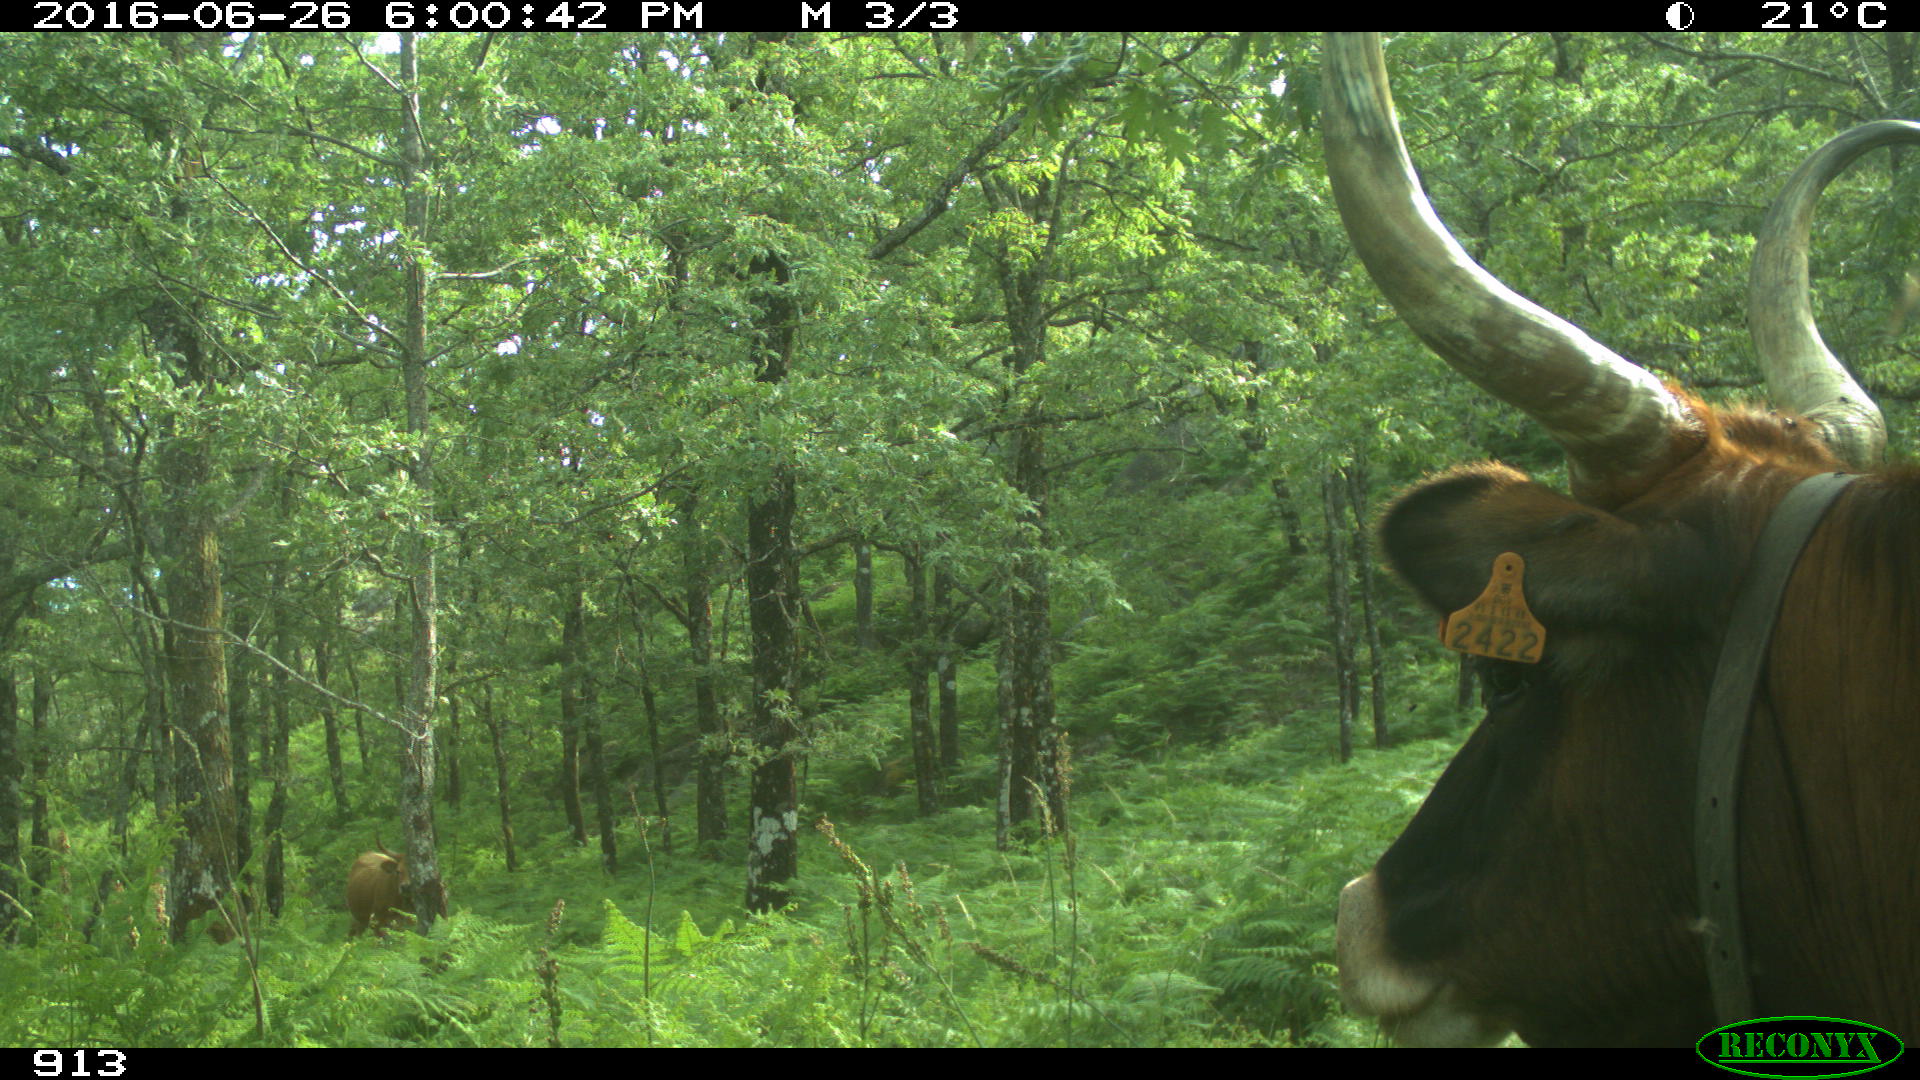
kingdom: Animalia
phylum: Chordata
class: Mammalia
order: Artiodactyla
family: Bovidae
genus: Bos
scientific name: Bos taurus
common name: Domesticated cattle
